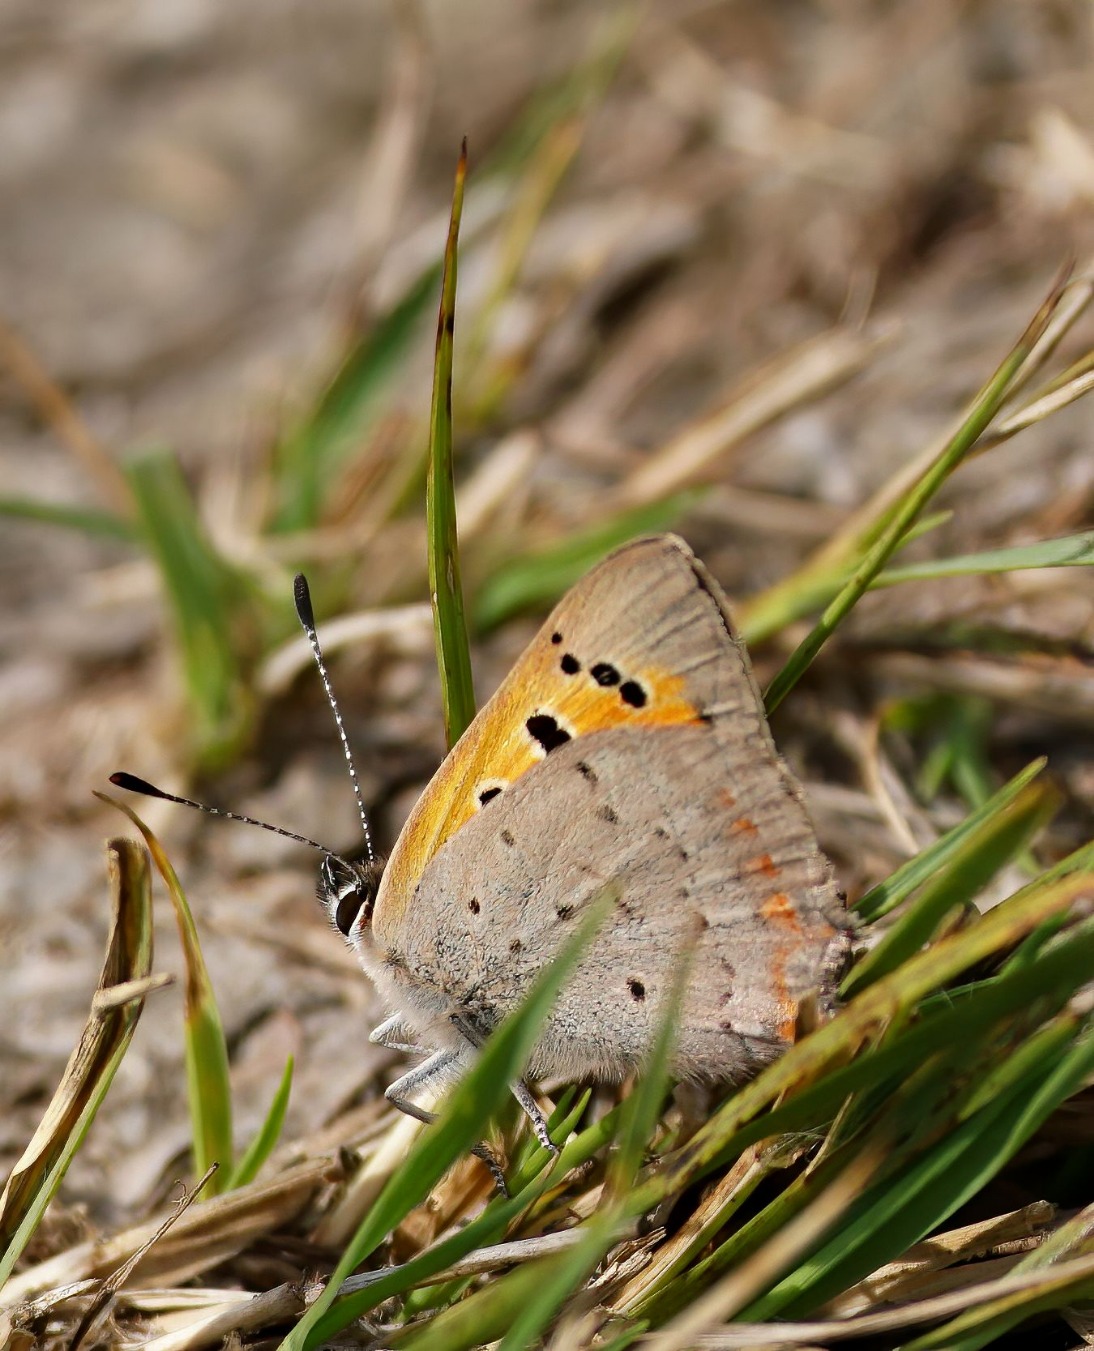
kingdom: Animalia
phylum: Arthropoda
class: Insecta
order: Lepidoptera
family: Lycaenidae
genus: Lycaena
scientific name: Lycaena phlaeas
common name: Lille ildfugl
